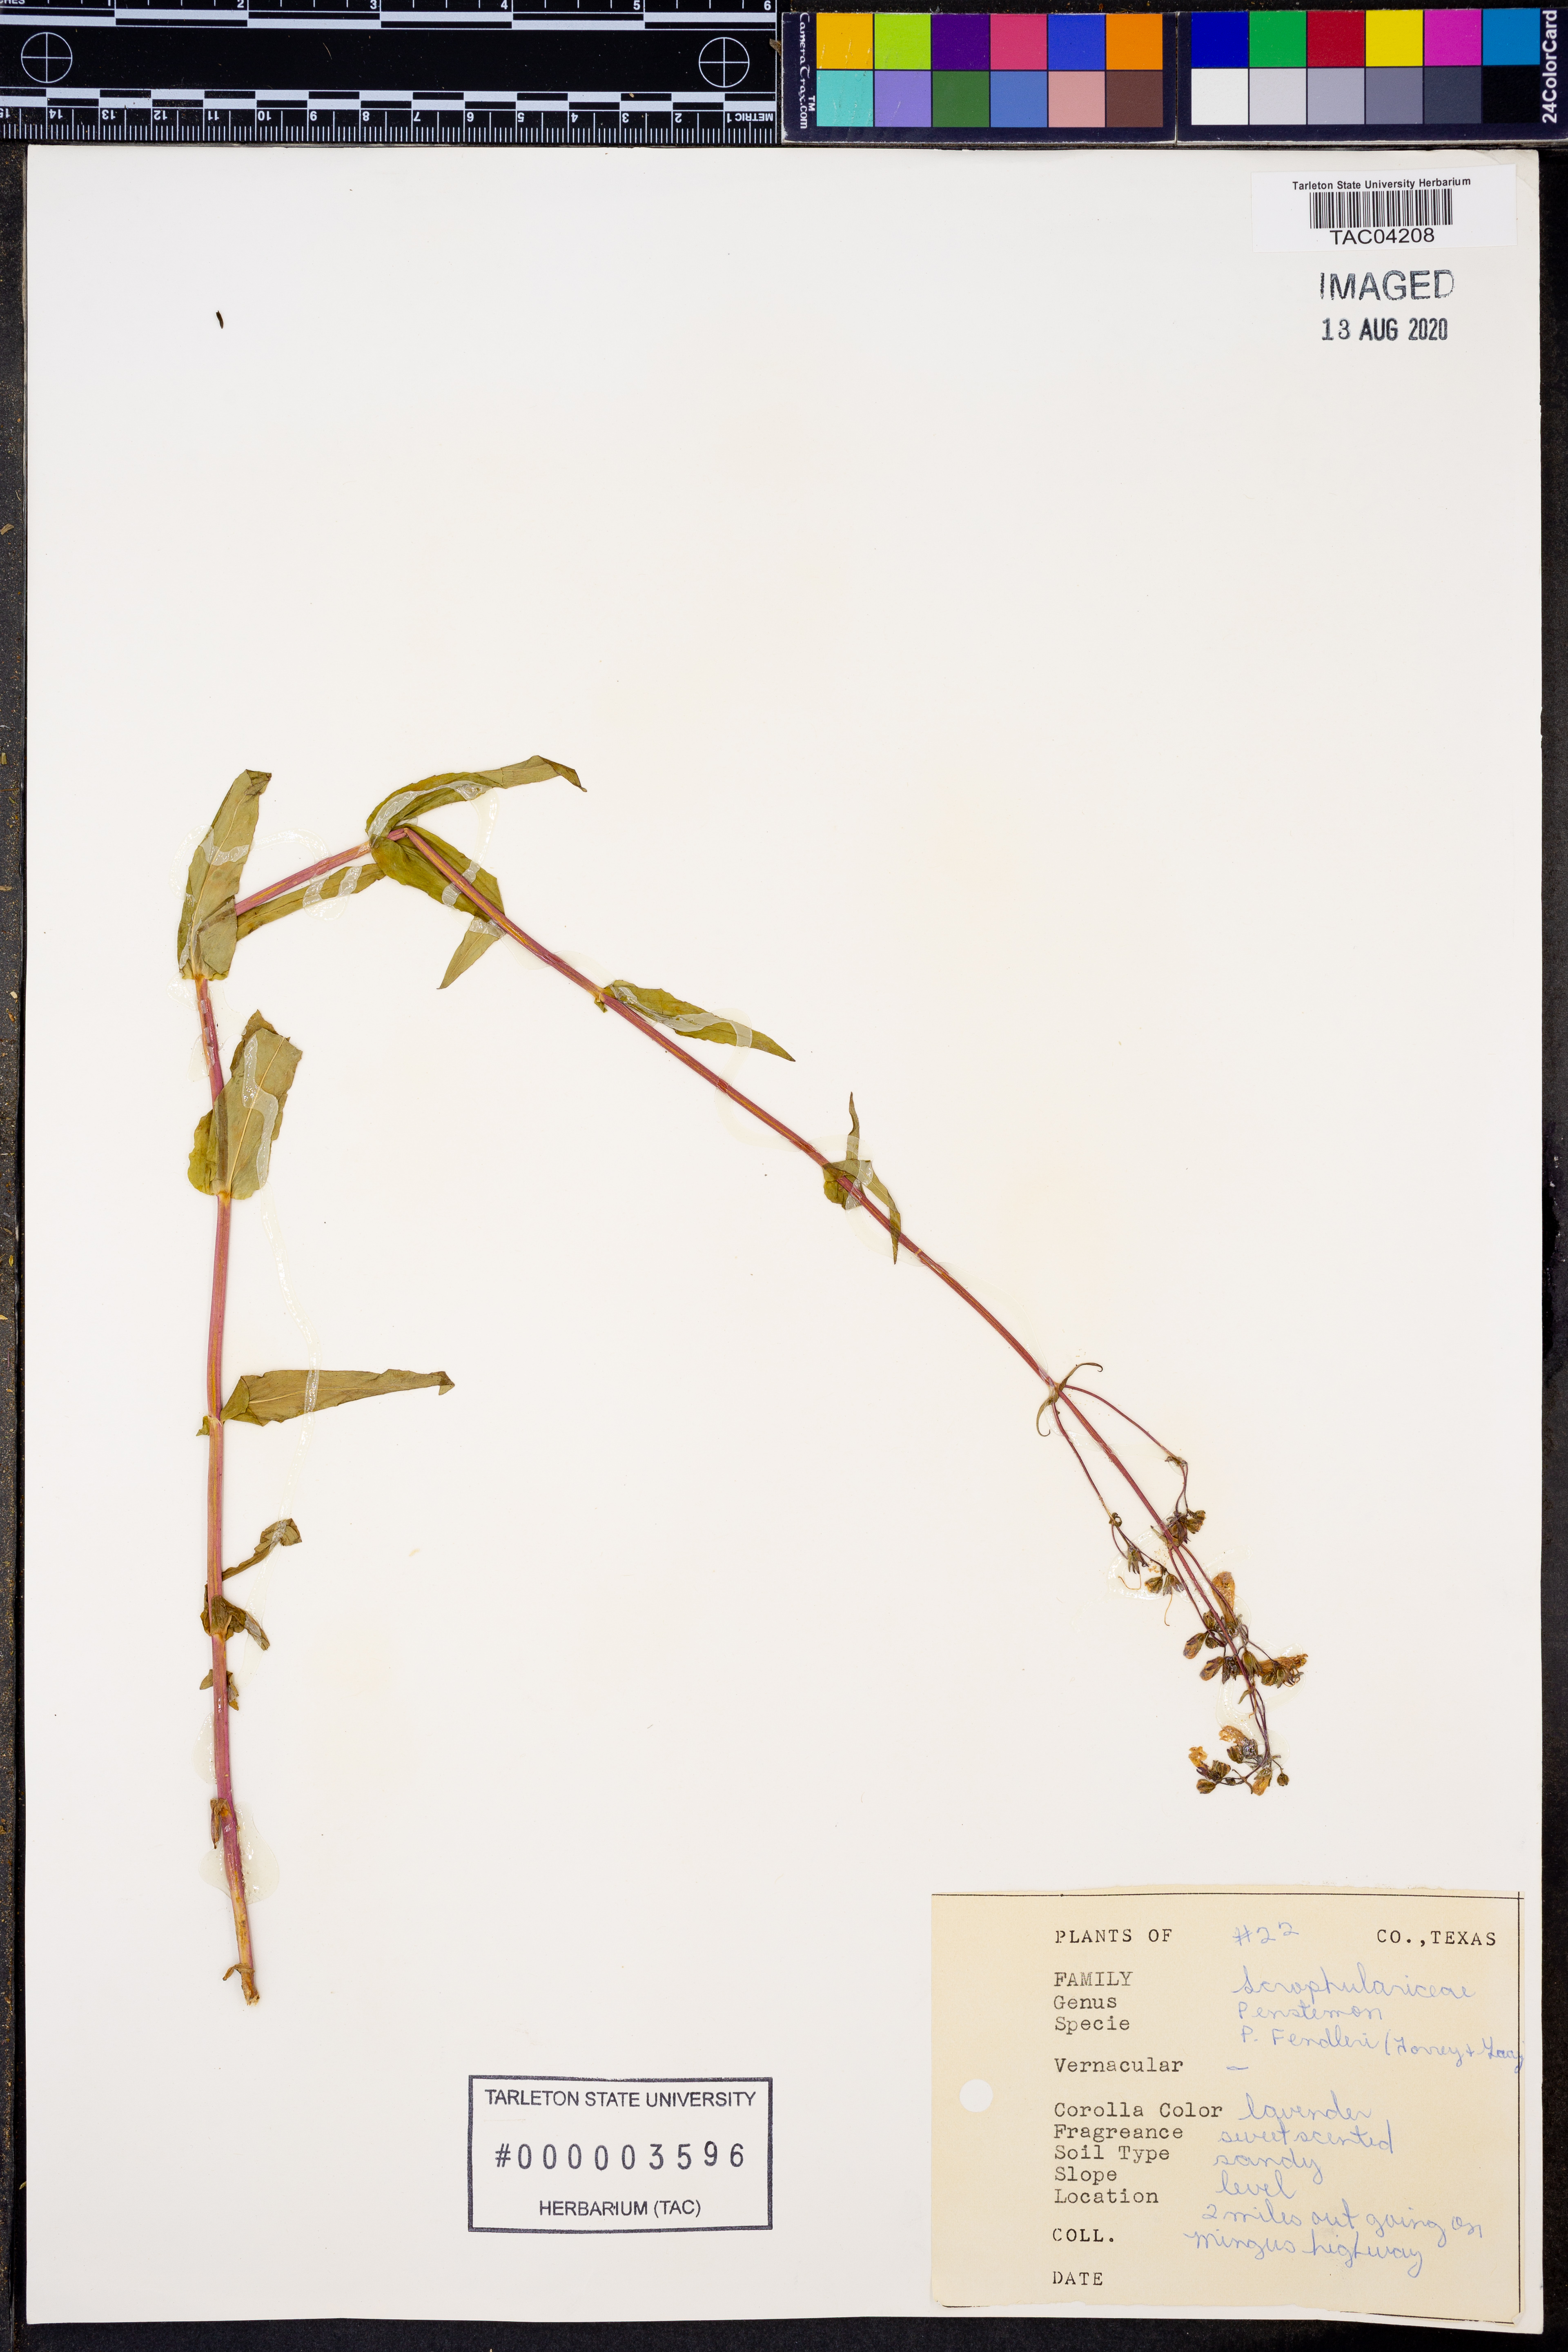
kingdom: Plantae
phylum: Tracheophyta
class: Magnoliopsida
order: Lamiales
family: Plantaginaceae
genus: Penstemon
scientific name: Penstemon fendleri
